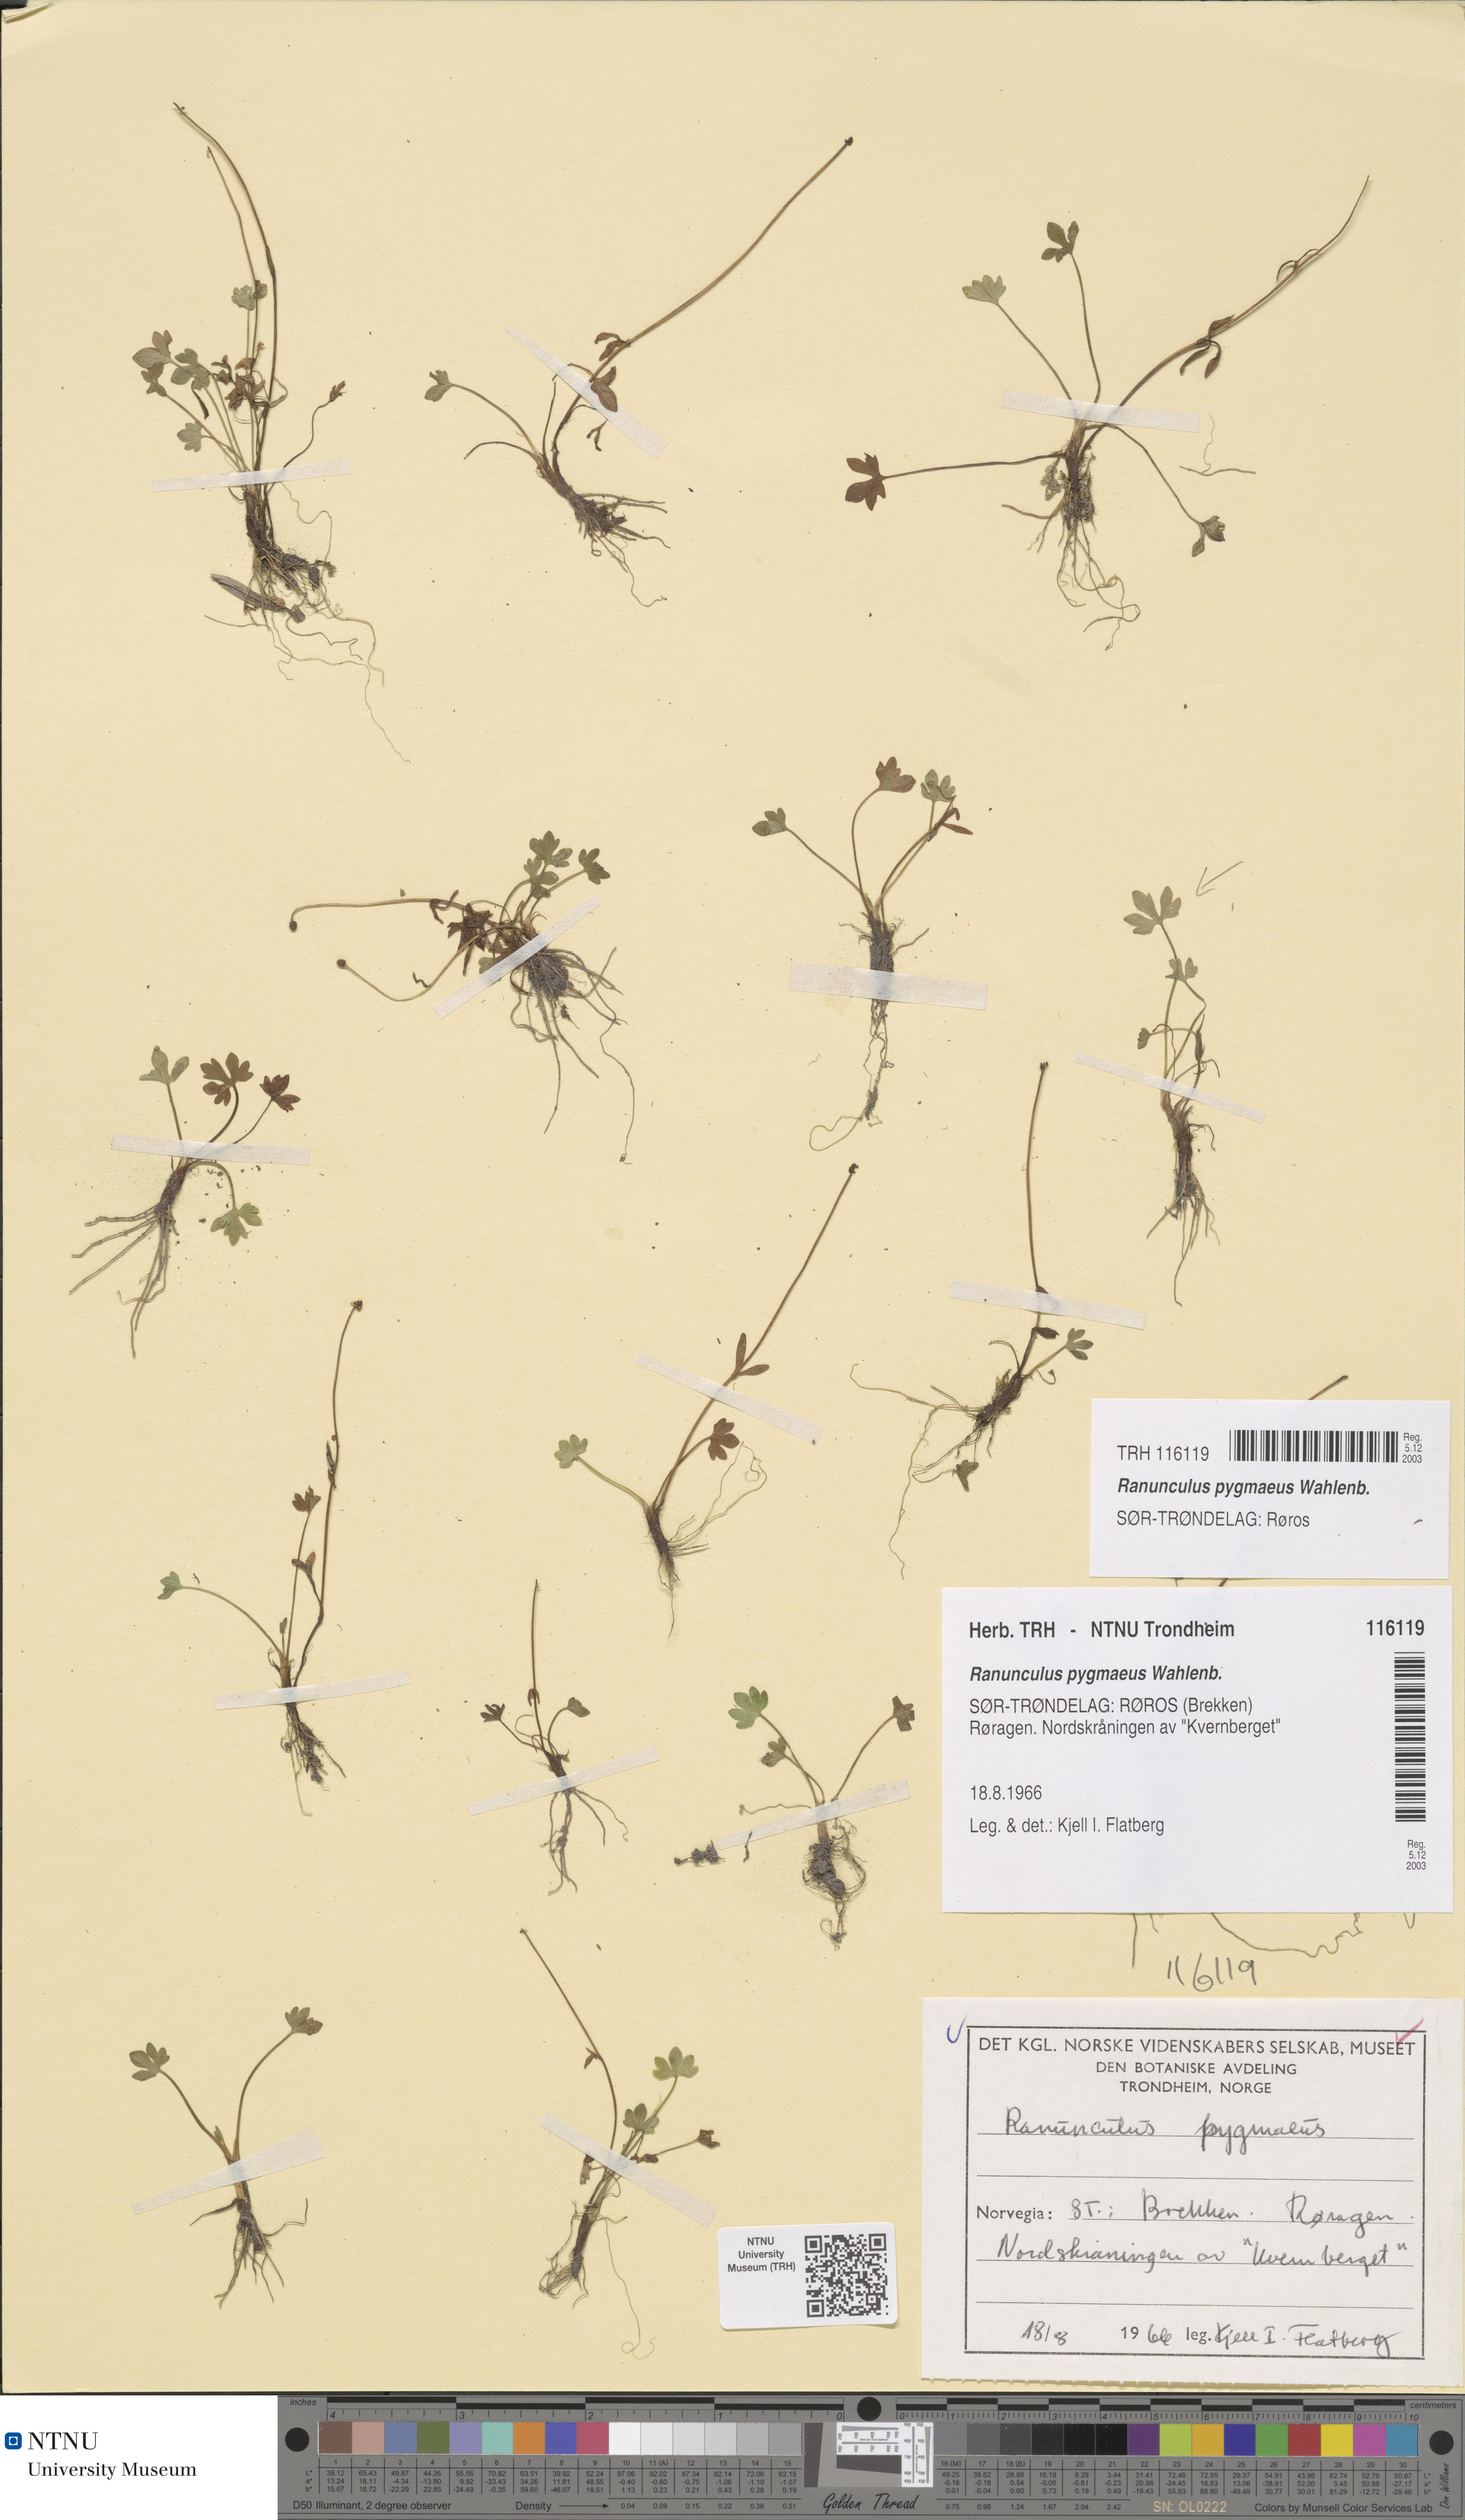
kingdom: Plantae
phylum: Tracheophyta
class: Magnoliopsida
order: Ranunculales
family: Ranunculaceae
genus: Ranunculus
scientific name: Ranunculus pygmaeus
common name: Dwarf buttercup
